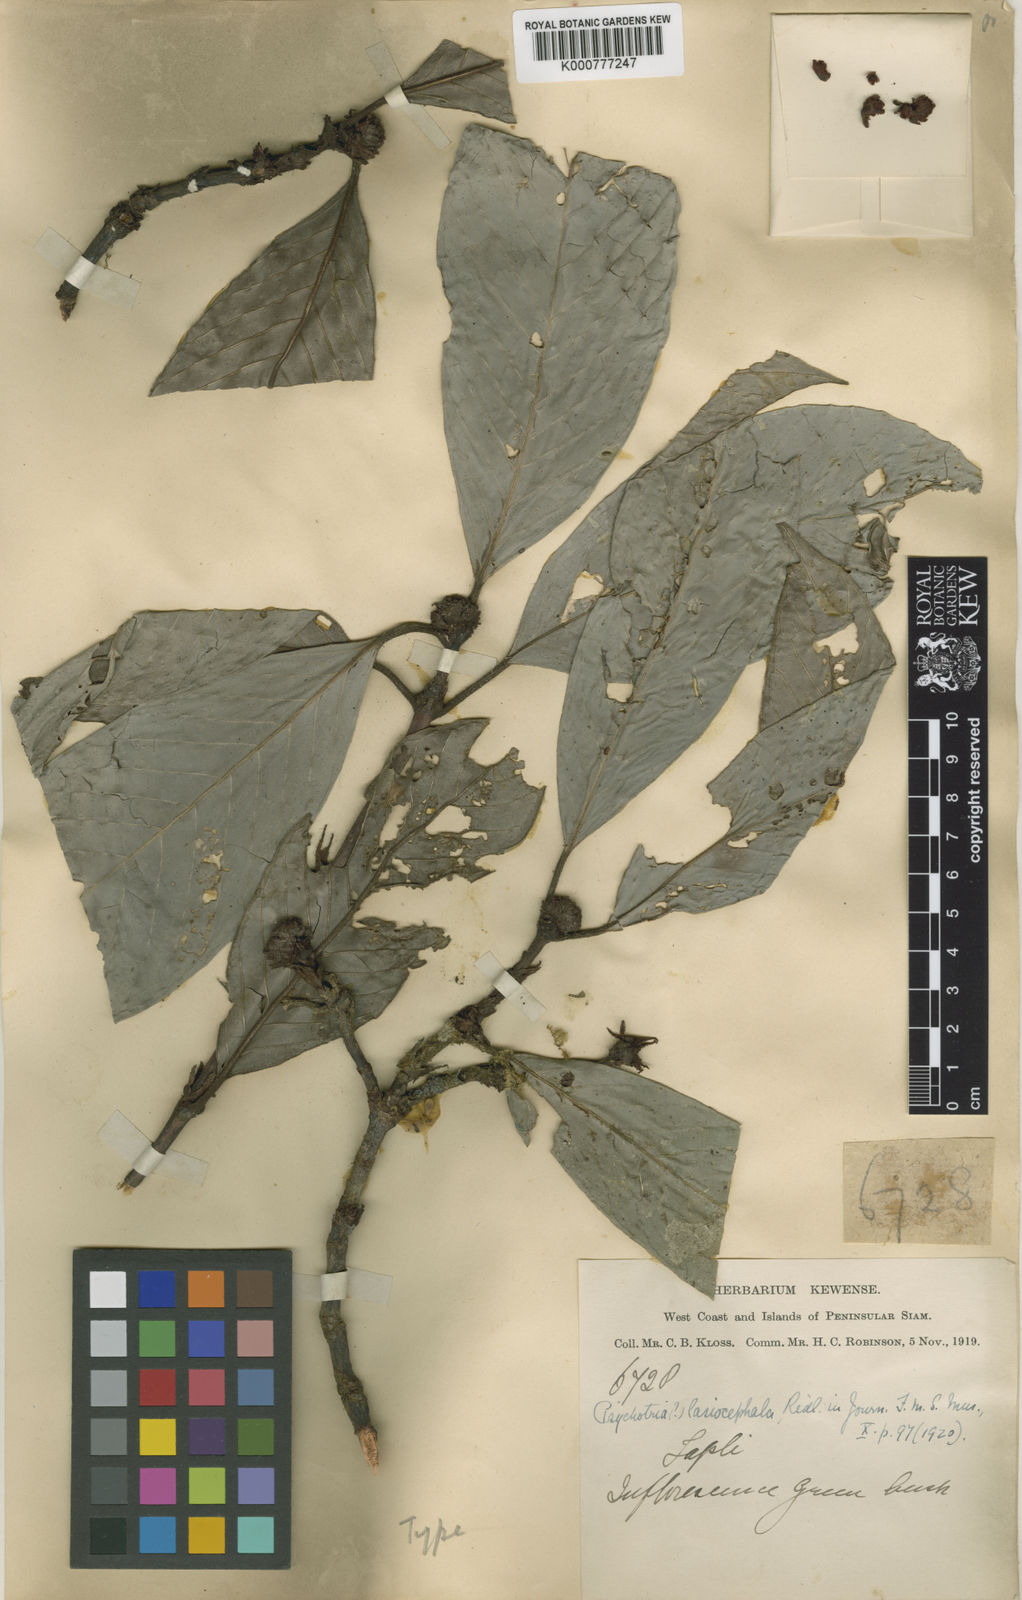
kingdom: Plantae
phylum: Tracheophyta
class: Magnoliopsida
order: Gentianales
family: Rubiaceae
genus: Psychotria
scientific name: Psychotria monticola
